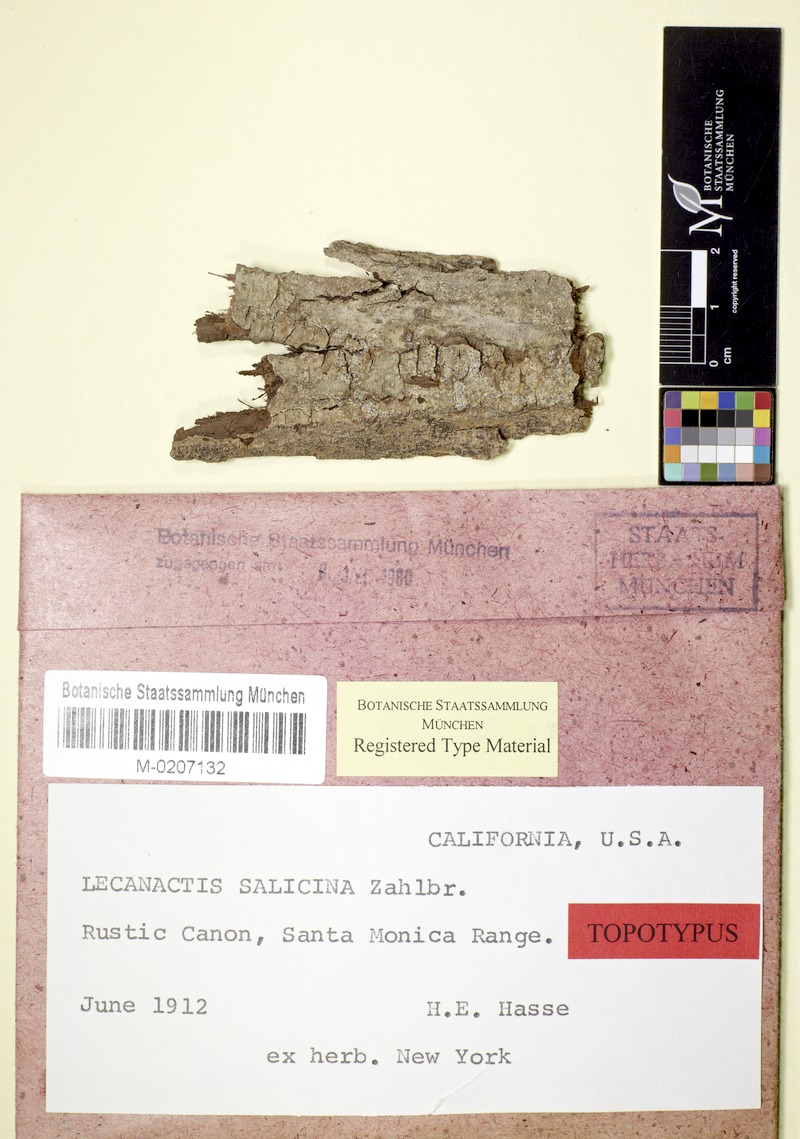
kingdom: Fungi
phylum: Ascomycota
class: Arthoniomycetes
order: Arthoniales
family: Roccellaceae
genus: Lecanactis
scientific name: Lecanactis salicina
